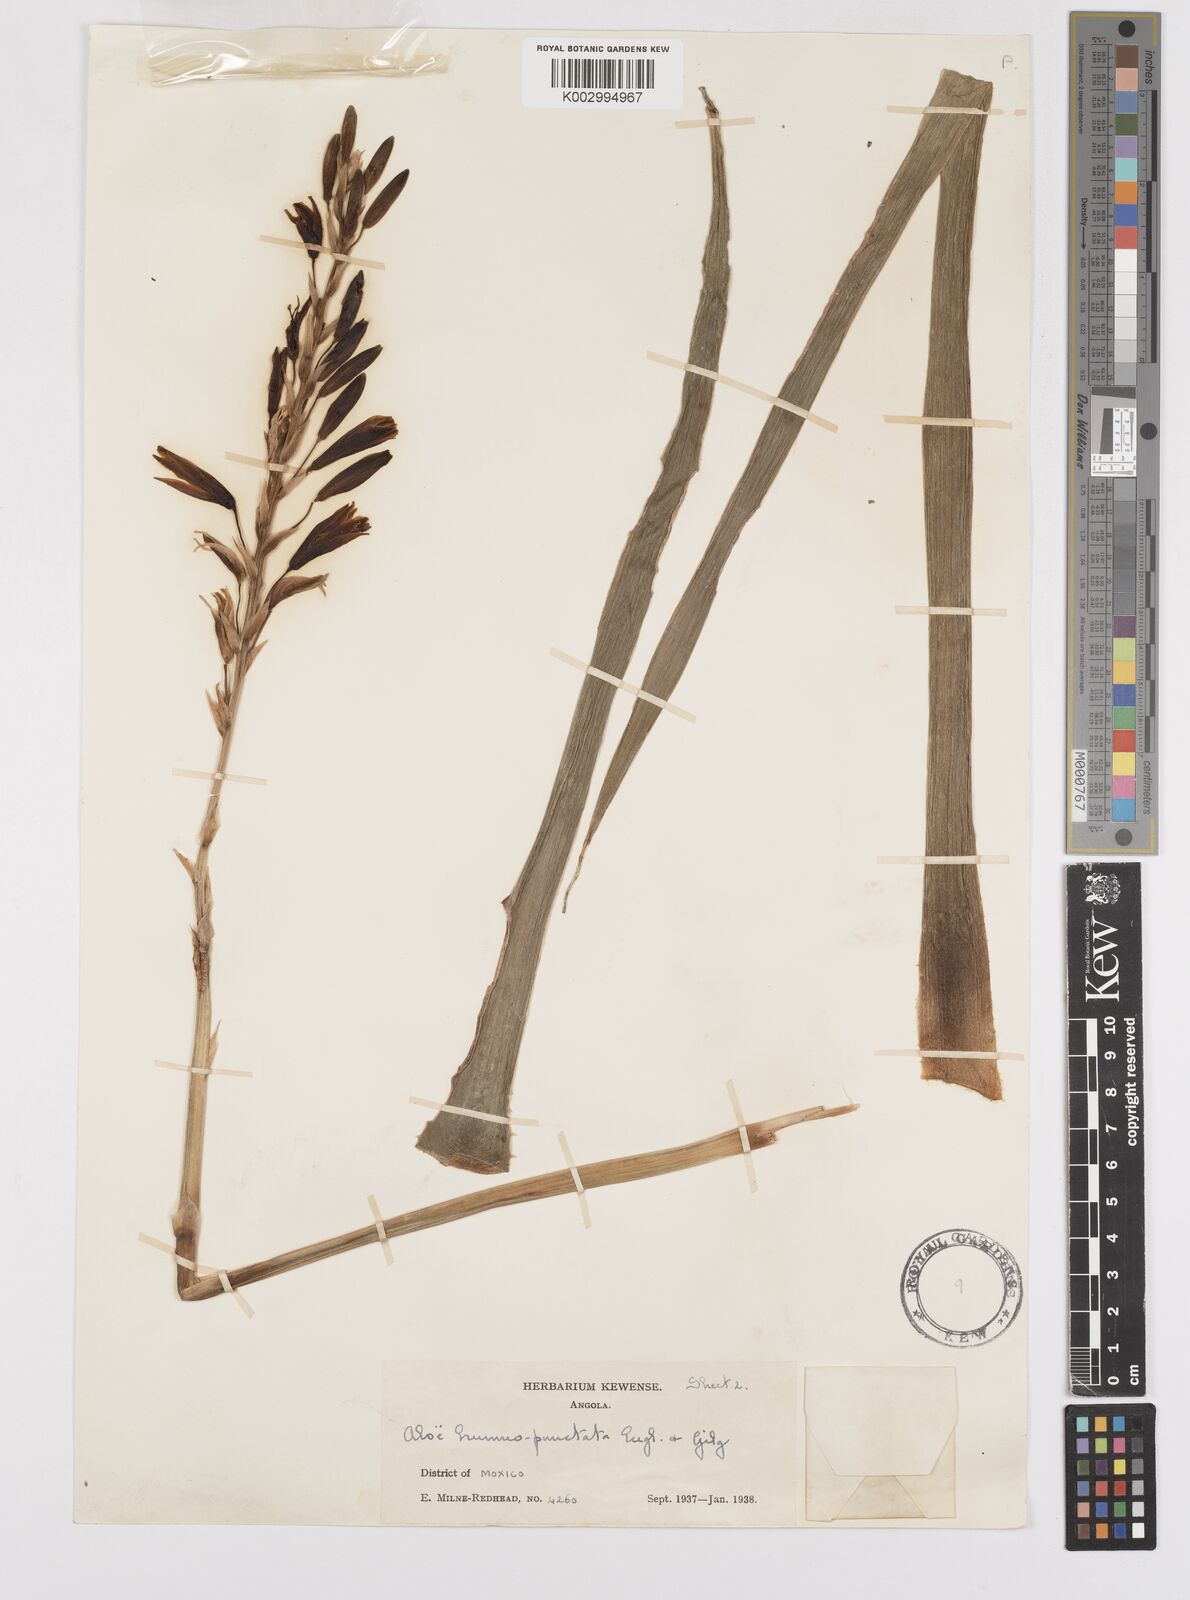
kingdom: Plantae
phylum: Tracheophyta
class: Liliopsida
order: Asparagales
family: Asphodelaceae
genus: Aloe
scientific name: Aloe nuttii
